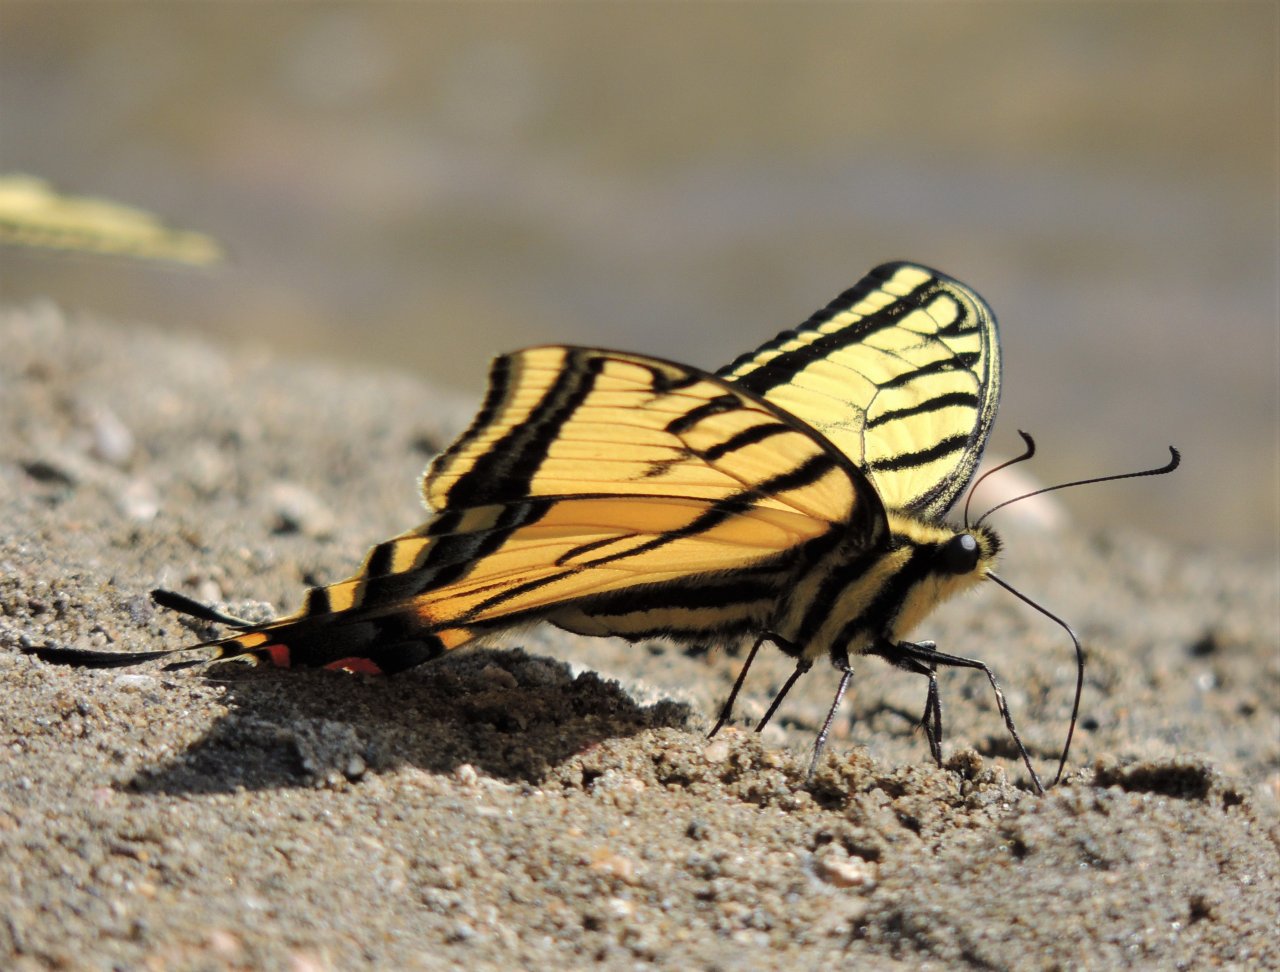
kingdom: Animalia
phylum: Arthropoda
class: Insecta
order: Lepidoptera
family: Papilionidae
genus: Papilio
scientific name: Papilio multicaudata
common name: Two-tailed Swallowtail
